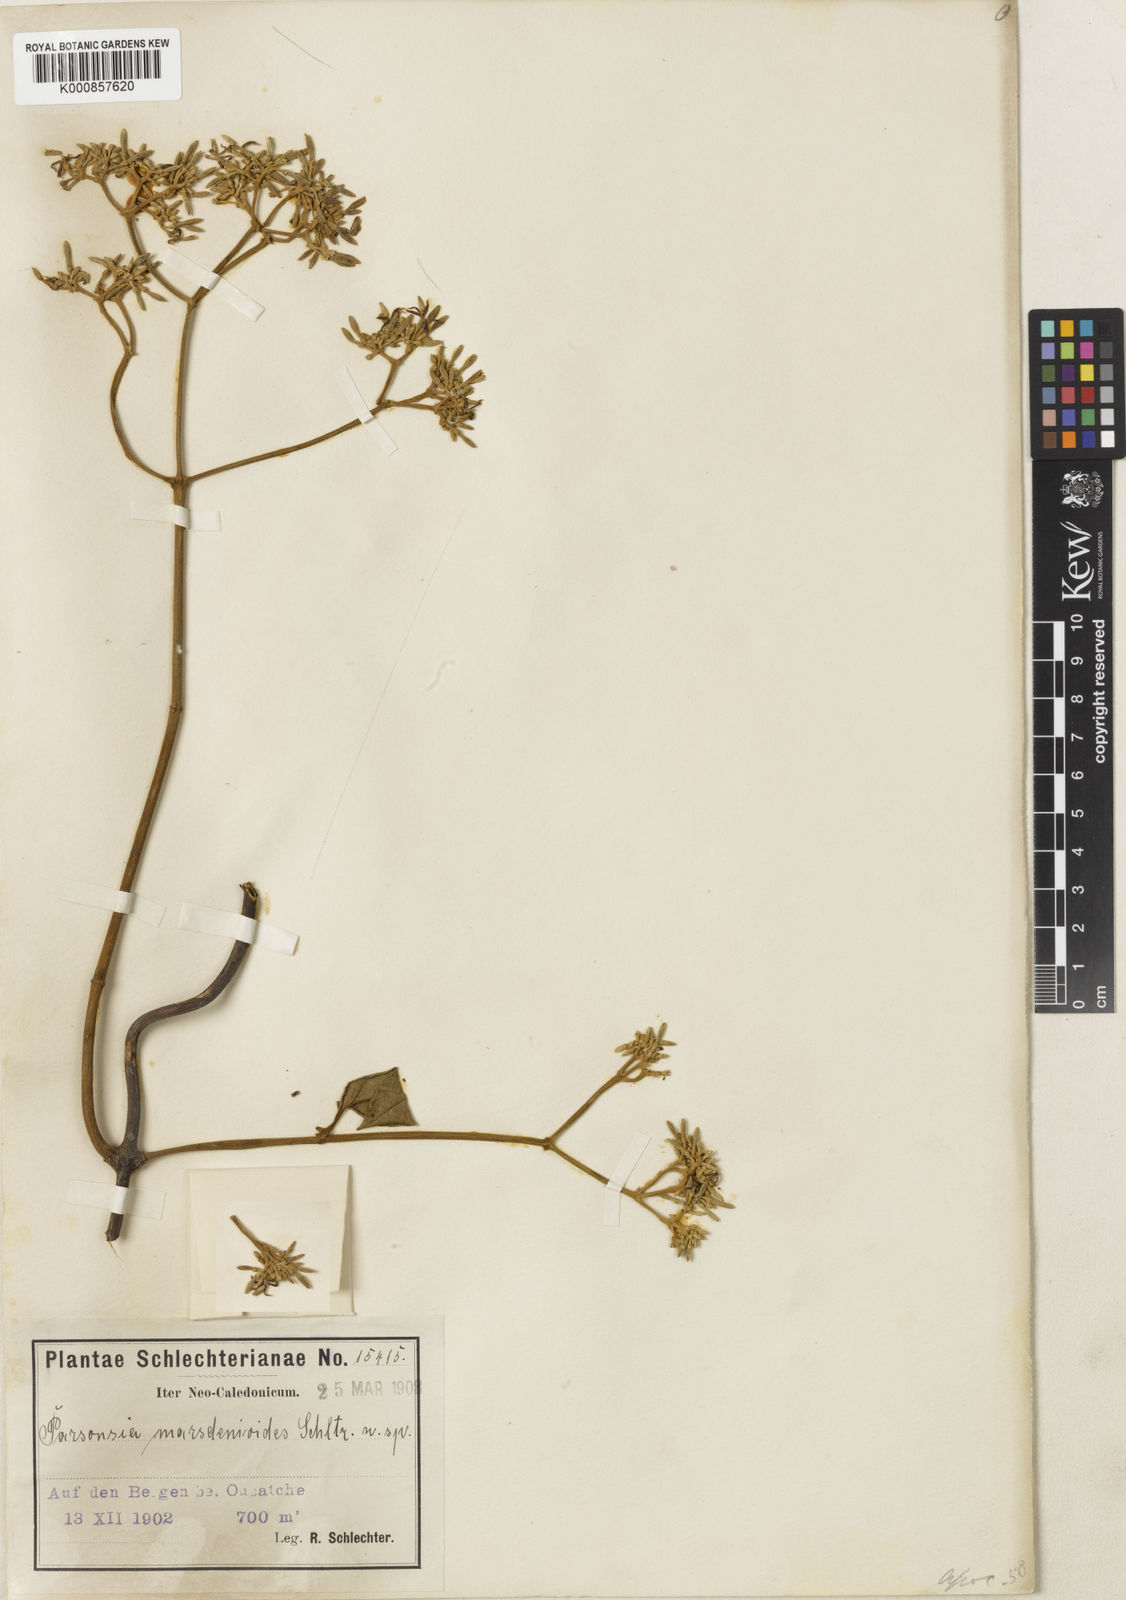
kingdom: Plantae
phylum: Tracheophyta
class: Magnoliopsida
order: Gentianales
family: Apocynaceae
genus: Parsonsia
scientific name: Parsonsia crebriflora
